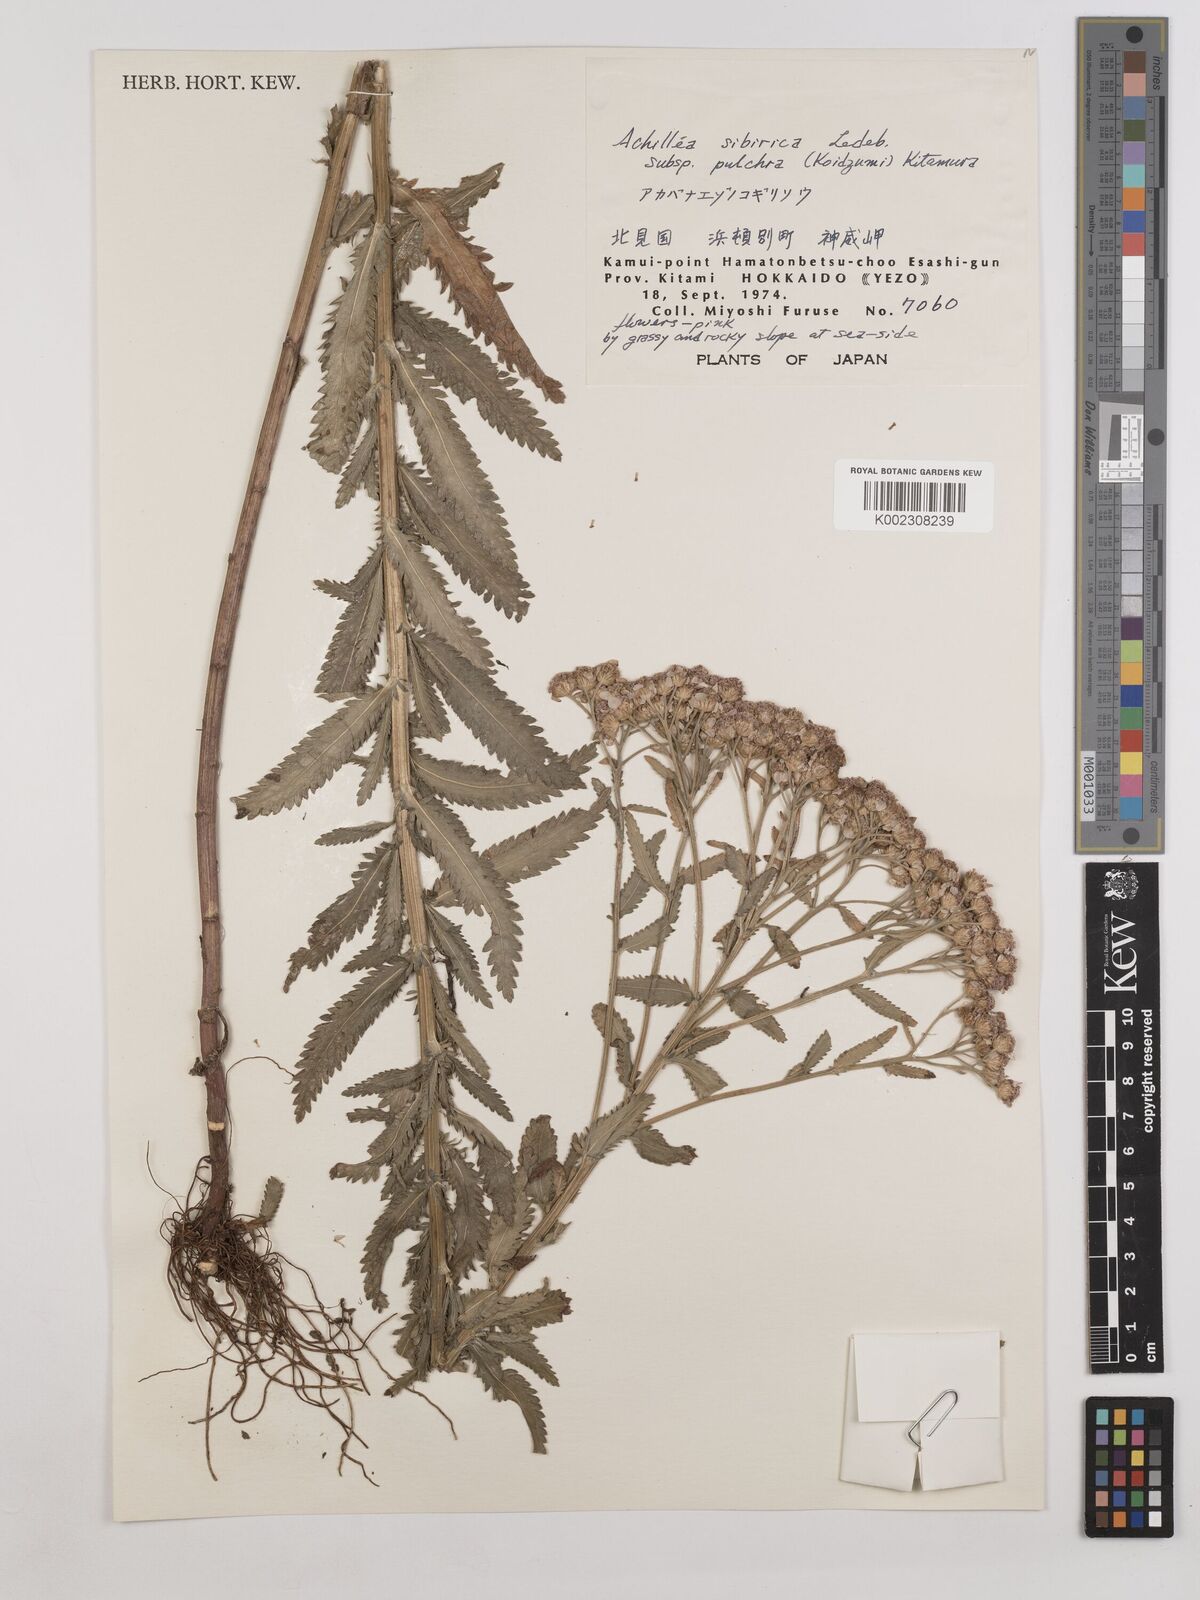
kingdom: Plantae
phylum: Tracheophyta
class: Magnoliopsida
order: Asterales
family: Asteraceae
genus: Achillea
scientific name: Achillea alpina
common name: Siberian yarrow
